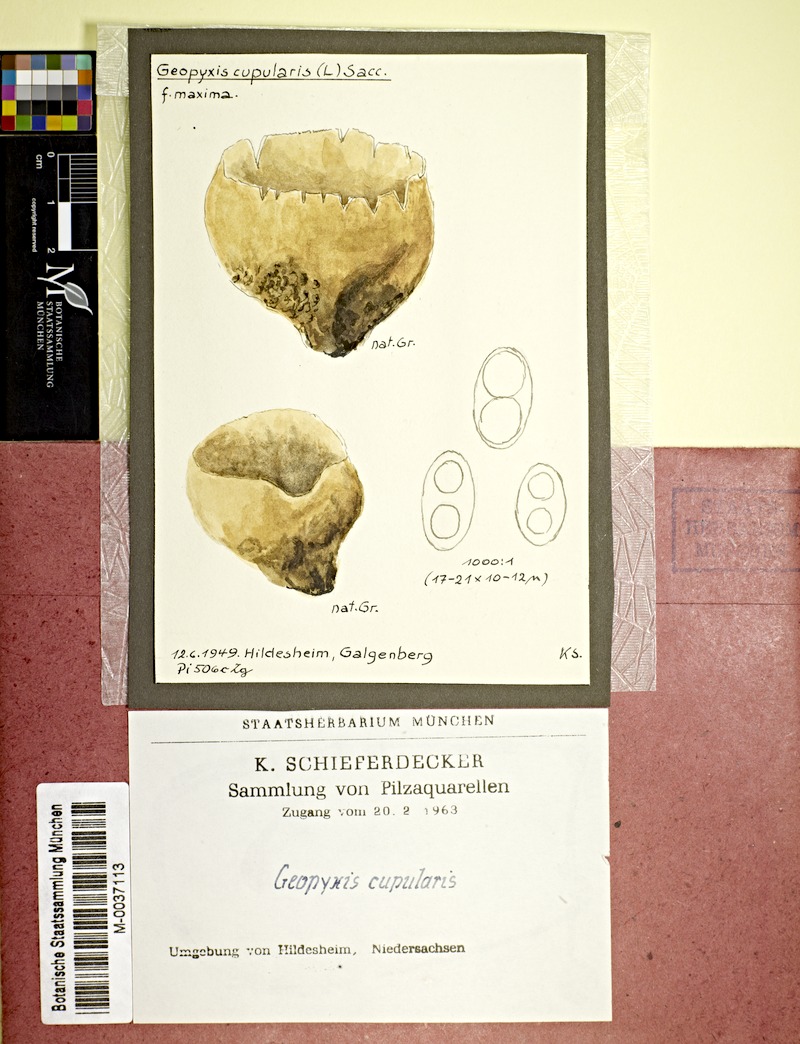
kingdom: Fungi
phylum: Ascomycota
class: Pezizomycetes
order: Pezizales
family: Pyronemataceae
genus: Tarzetta
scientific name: Tarzetta cupularis
